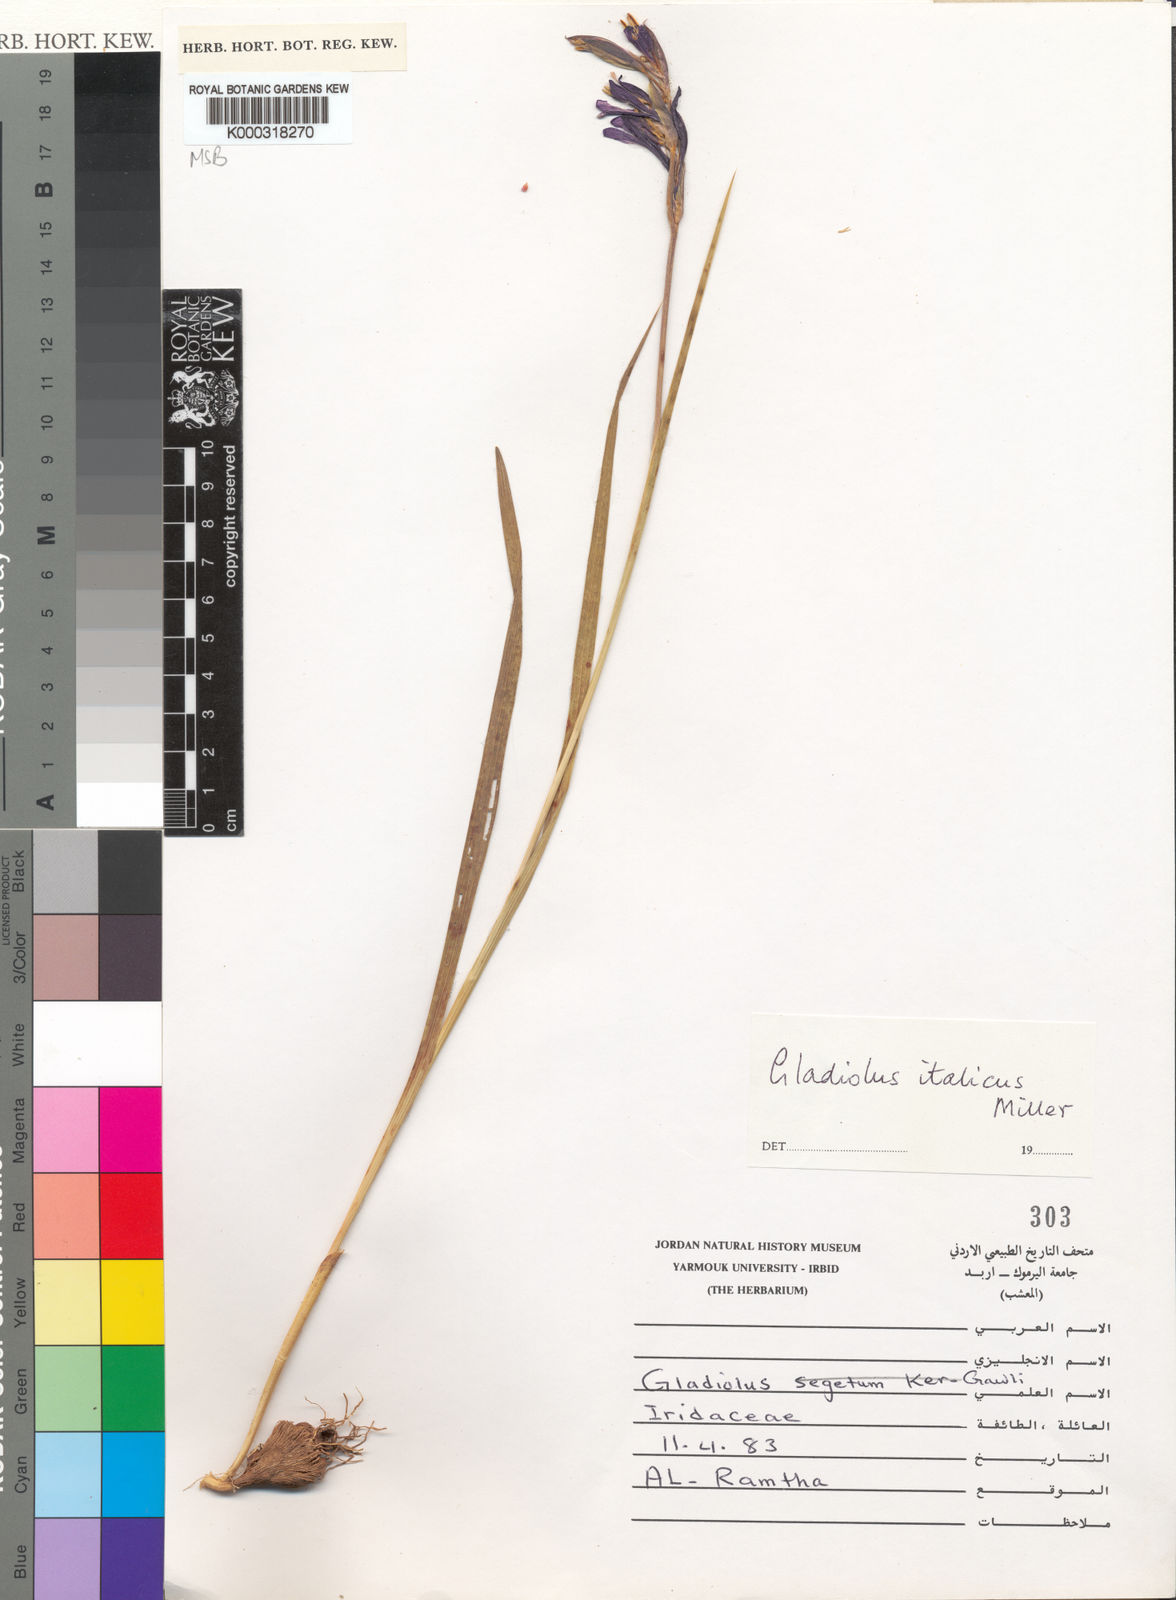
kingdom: Plantae
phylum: Tracheophyta
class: Liliopsida
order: Asparagales
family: Iridaceae
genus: Gladiolus
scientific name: Gladiolus italicus
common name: Field gladiolus
